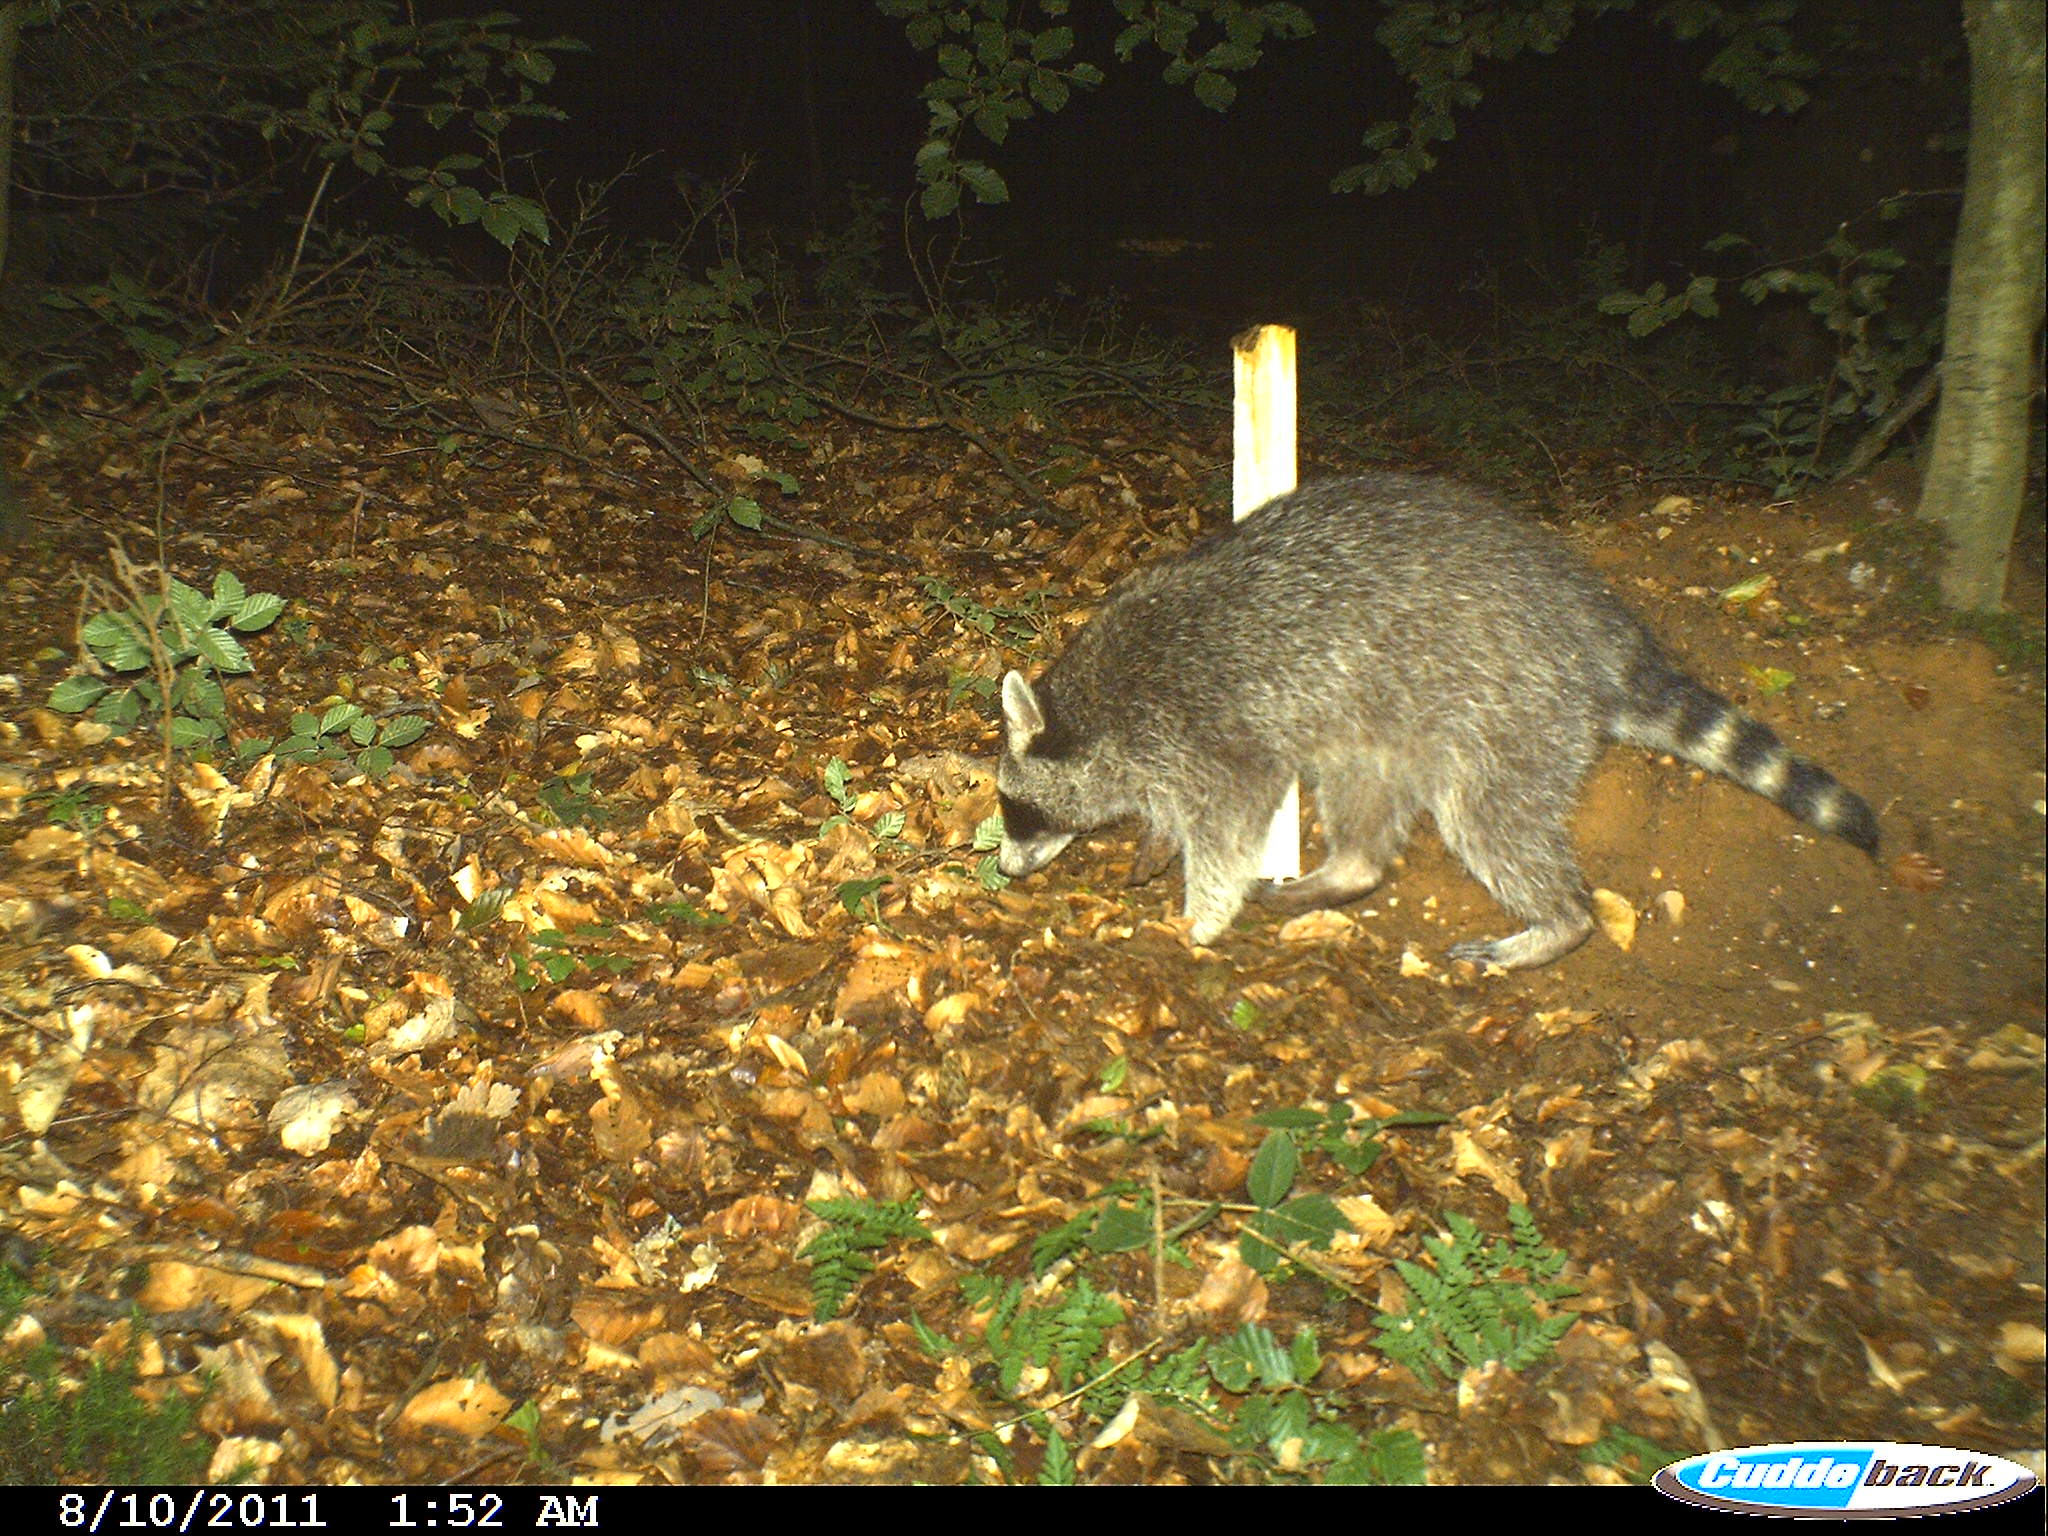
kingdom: Animalia
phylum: Chordata
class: Mammalia
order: Carnivora
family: Procyonidae
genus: Procyon
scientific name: Procyon lotor
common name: Raccoon
